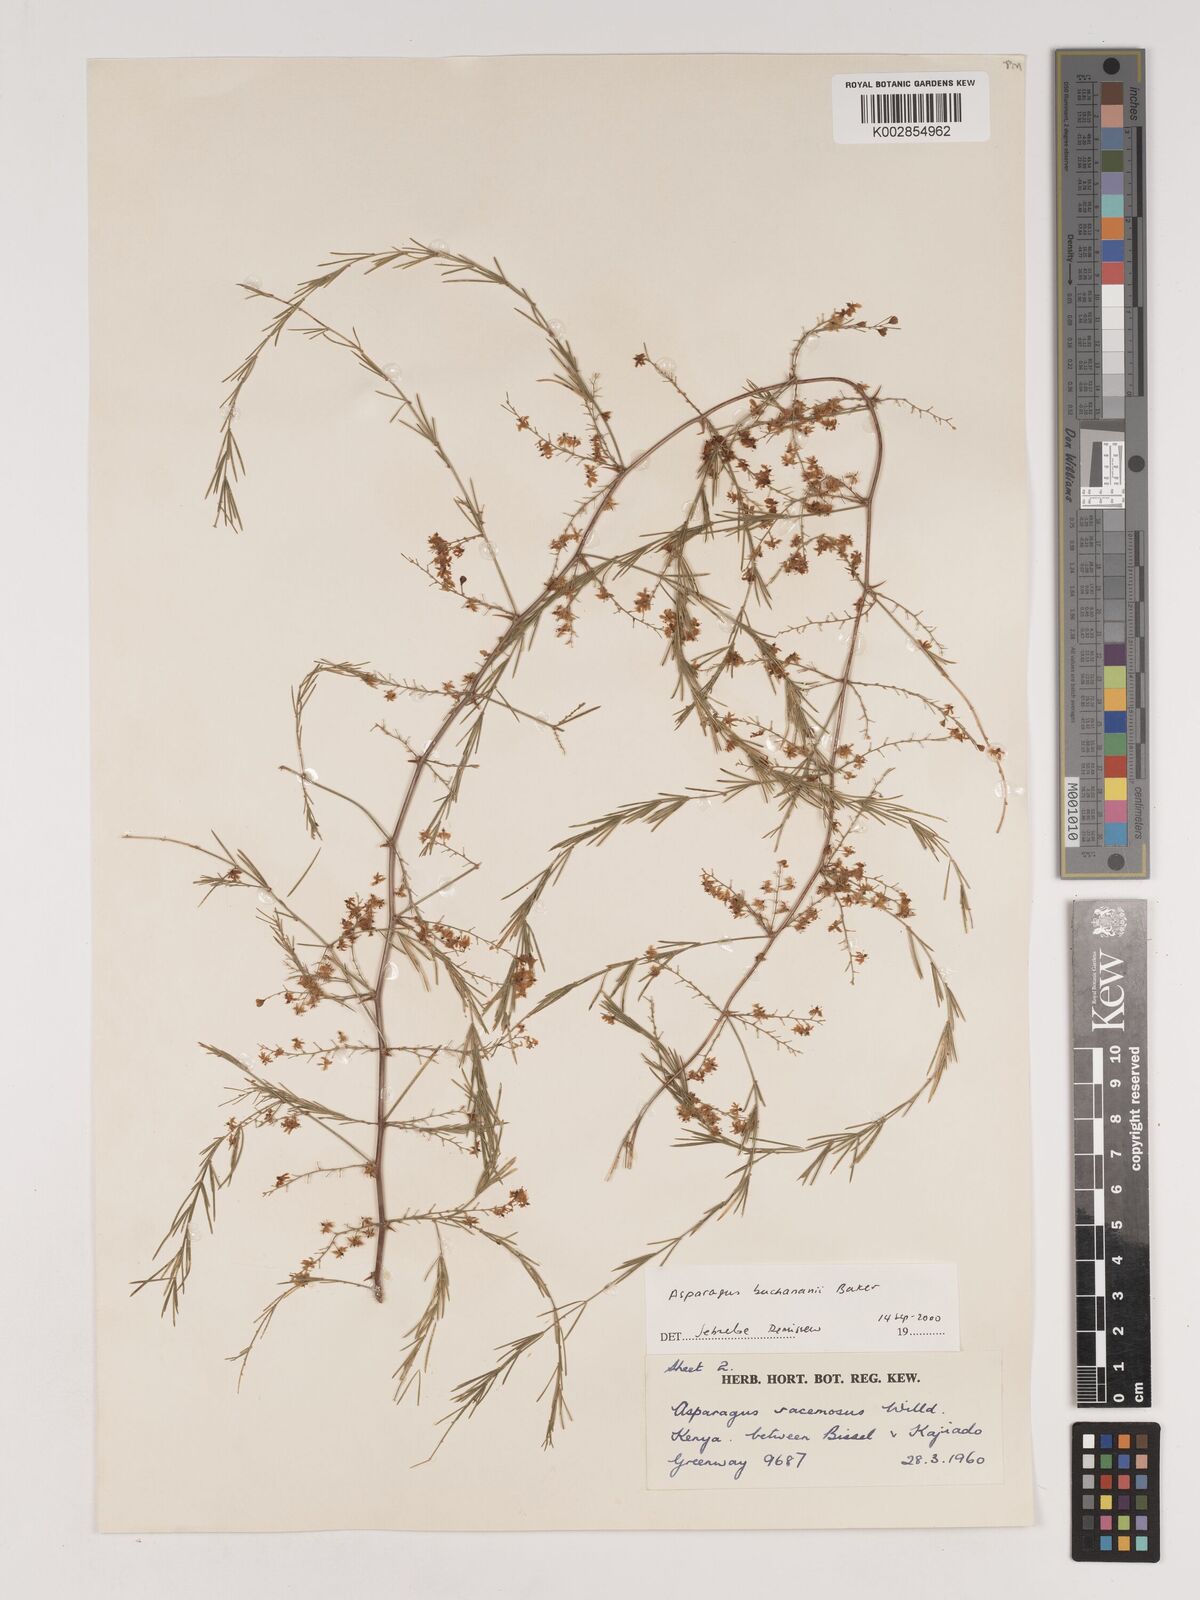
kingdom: Plantae
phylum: Tracheophyta
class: Liliopsida
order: Asparagales
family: Asparagaceae
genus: Asparagus
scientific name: Asparagus buchananii
